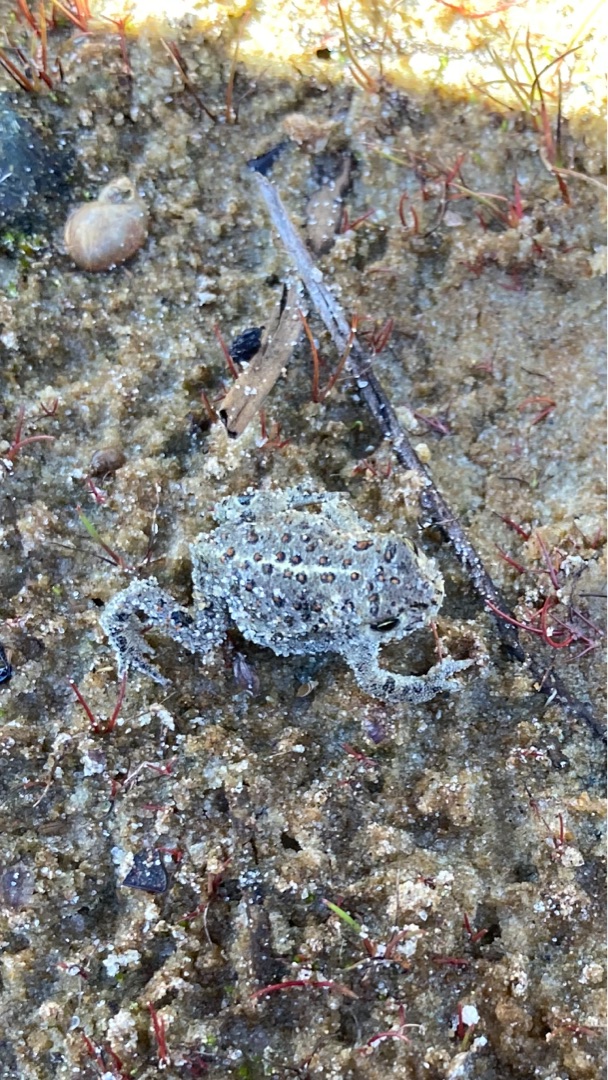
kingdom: Animalia
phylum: Chordata
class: Amphibia
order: Anura
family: Bufonidae
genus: Epidalea
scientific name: Epidalea calamita
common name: Strandtudse
